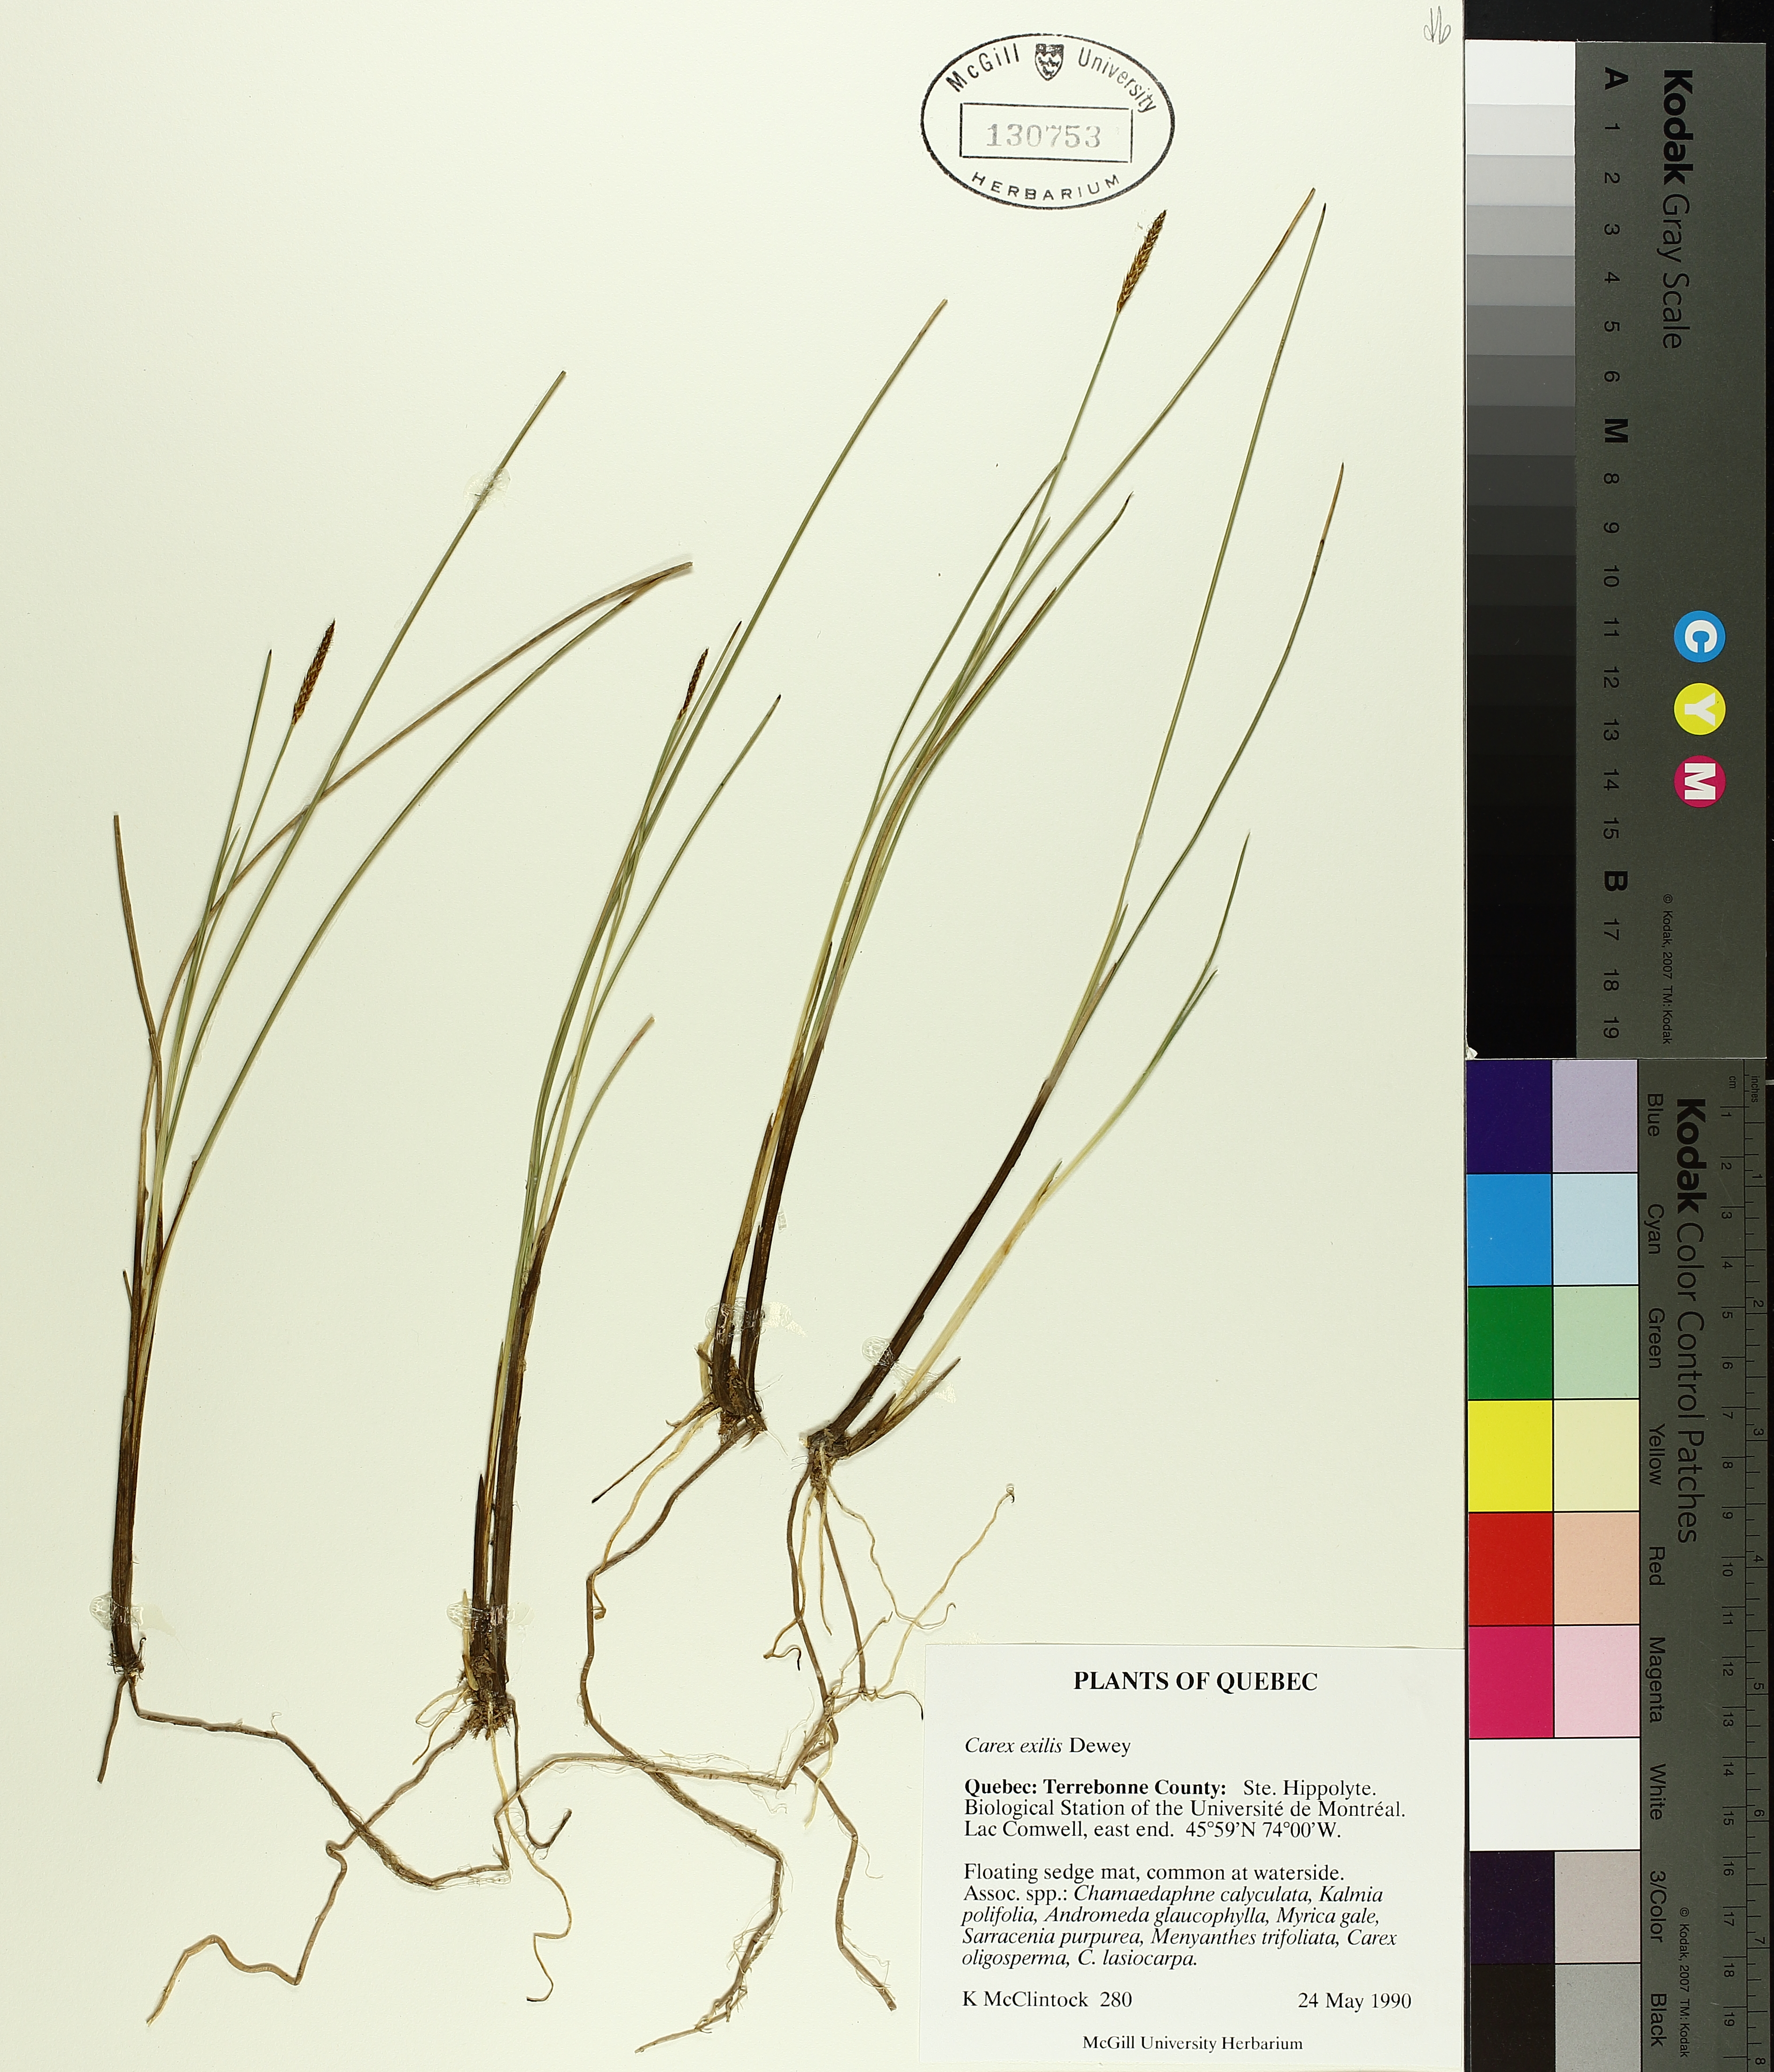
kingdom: Plantae
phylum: Tracheophyta
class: Liliopsida
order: Poales
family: Cyperaceae
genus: Carex
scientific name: Carex exilis
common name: Coastal sedge
